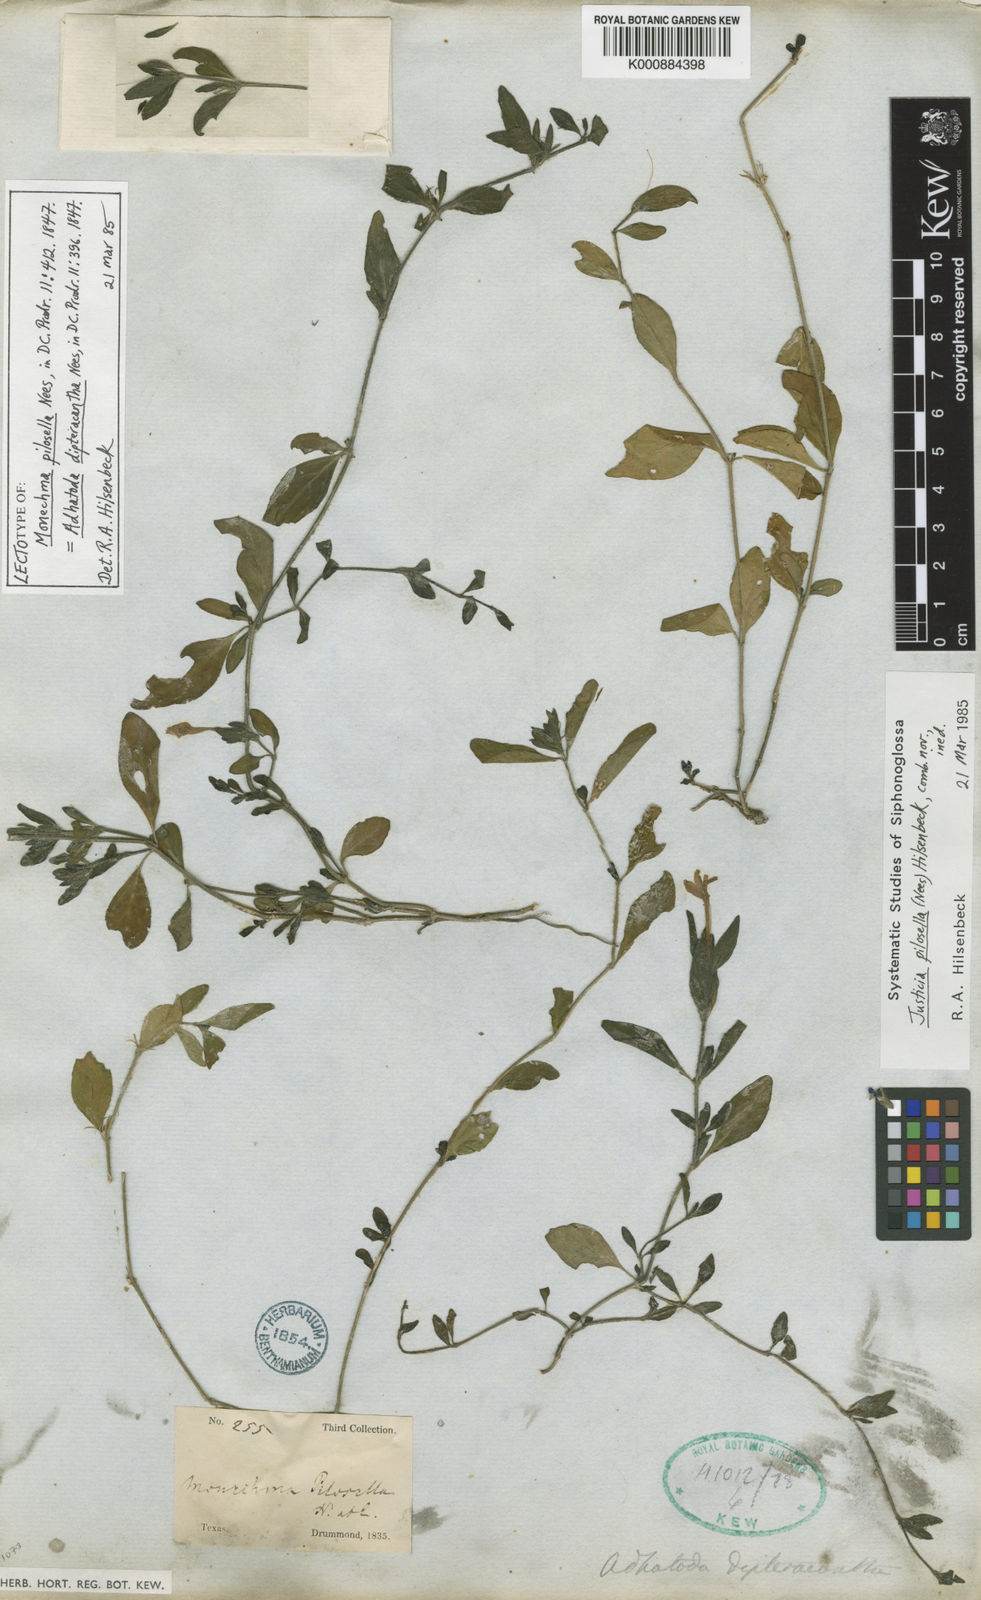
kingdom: Plantae
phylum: Tracheophyta
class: Magnoliopsida
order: Lamiales
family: Acanthaceae
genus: Justicia
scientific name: Justicia pilosella
